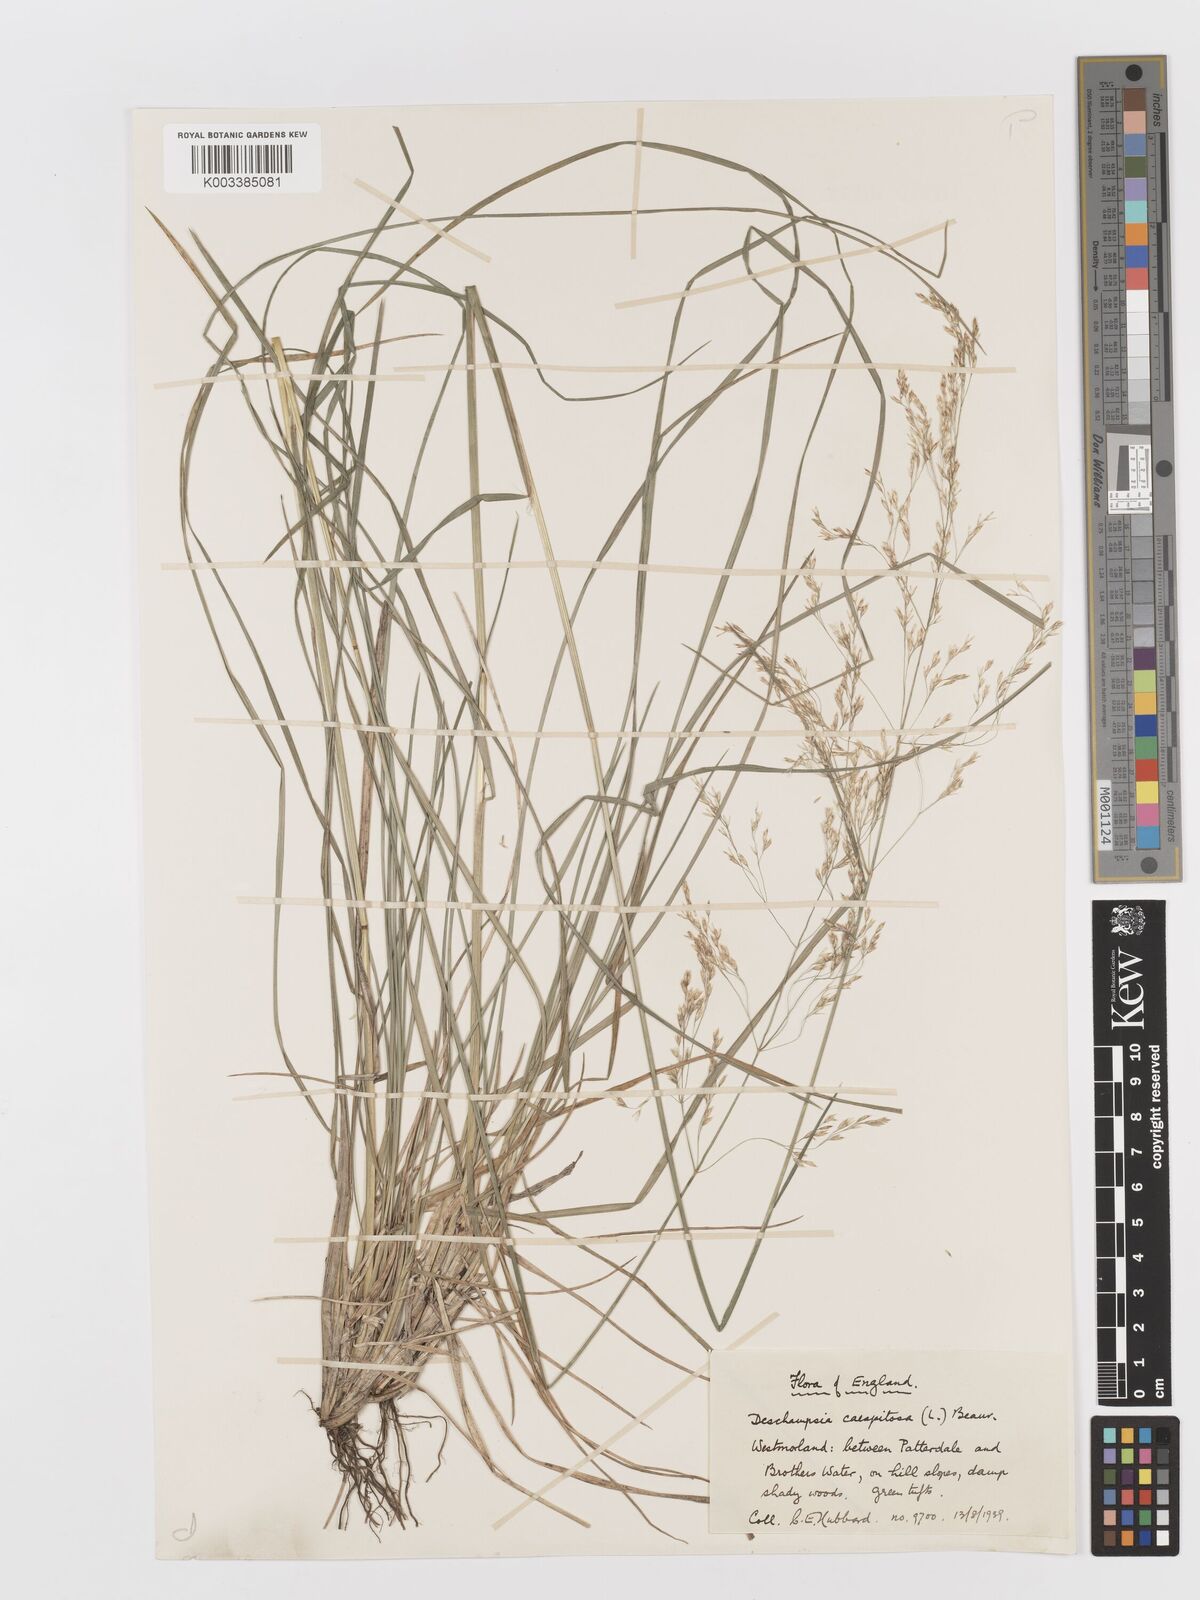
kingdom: Plantae
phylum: Tracheophyta
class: Liliopsida
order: Poales
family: Poaceae
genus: Deschampsia
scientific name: Deschampsia cespitosa
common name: Tufted hair-grass
